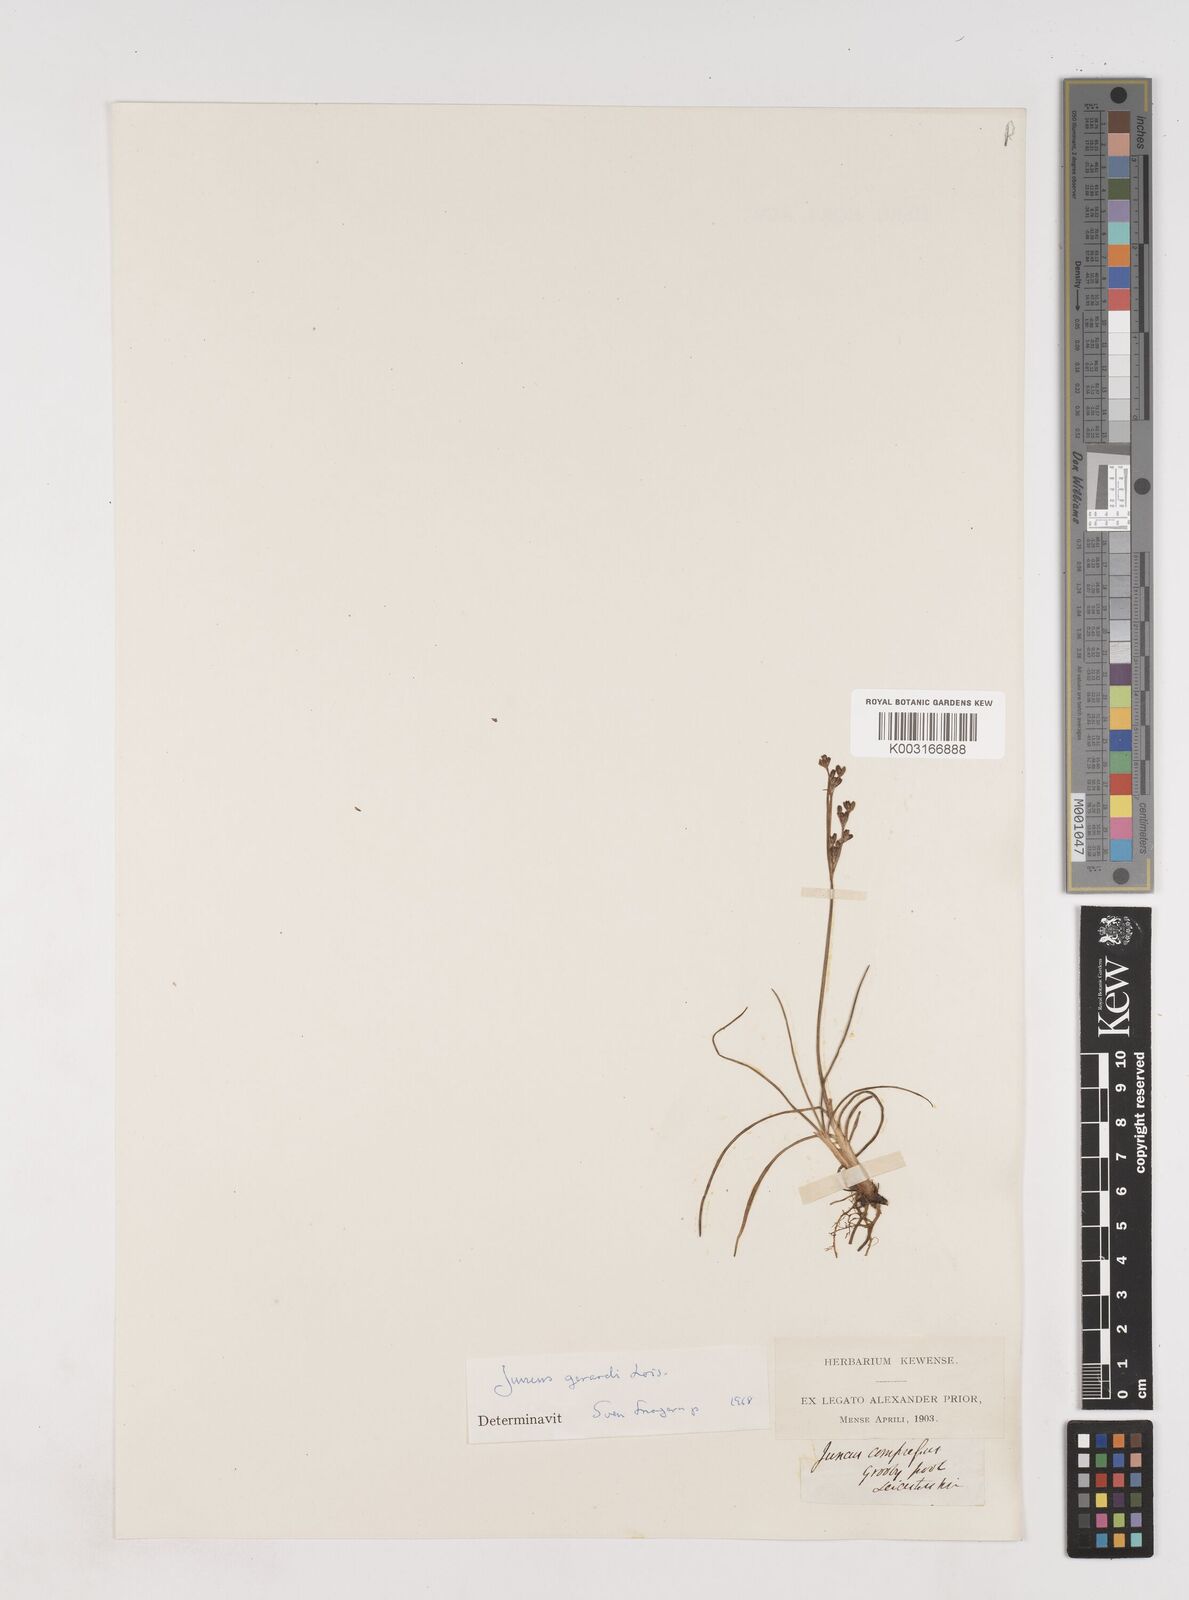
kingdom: Plantae
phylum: Tracheophyta
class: Liliopsida
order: Poales
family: Juncaceae
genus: Juncus
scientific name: Juncus gerardi
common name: Saltmarsh rush
